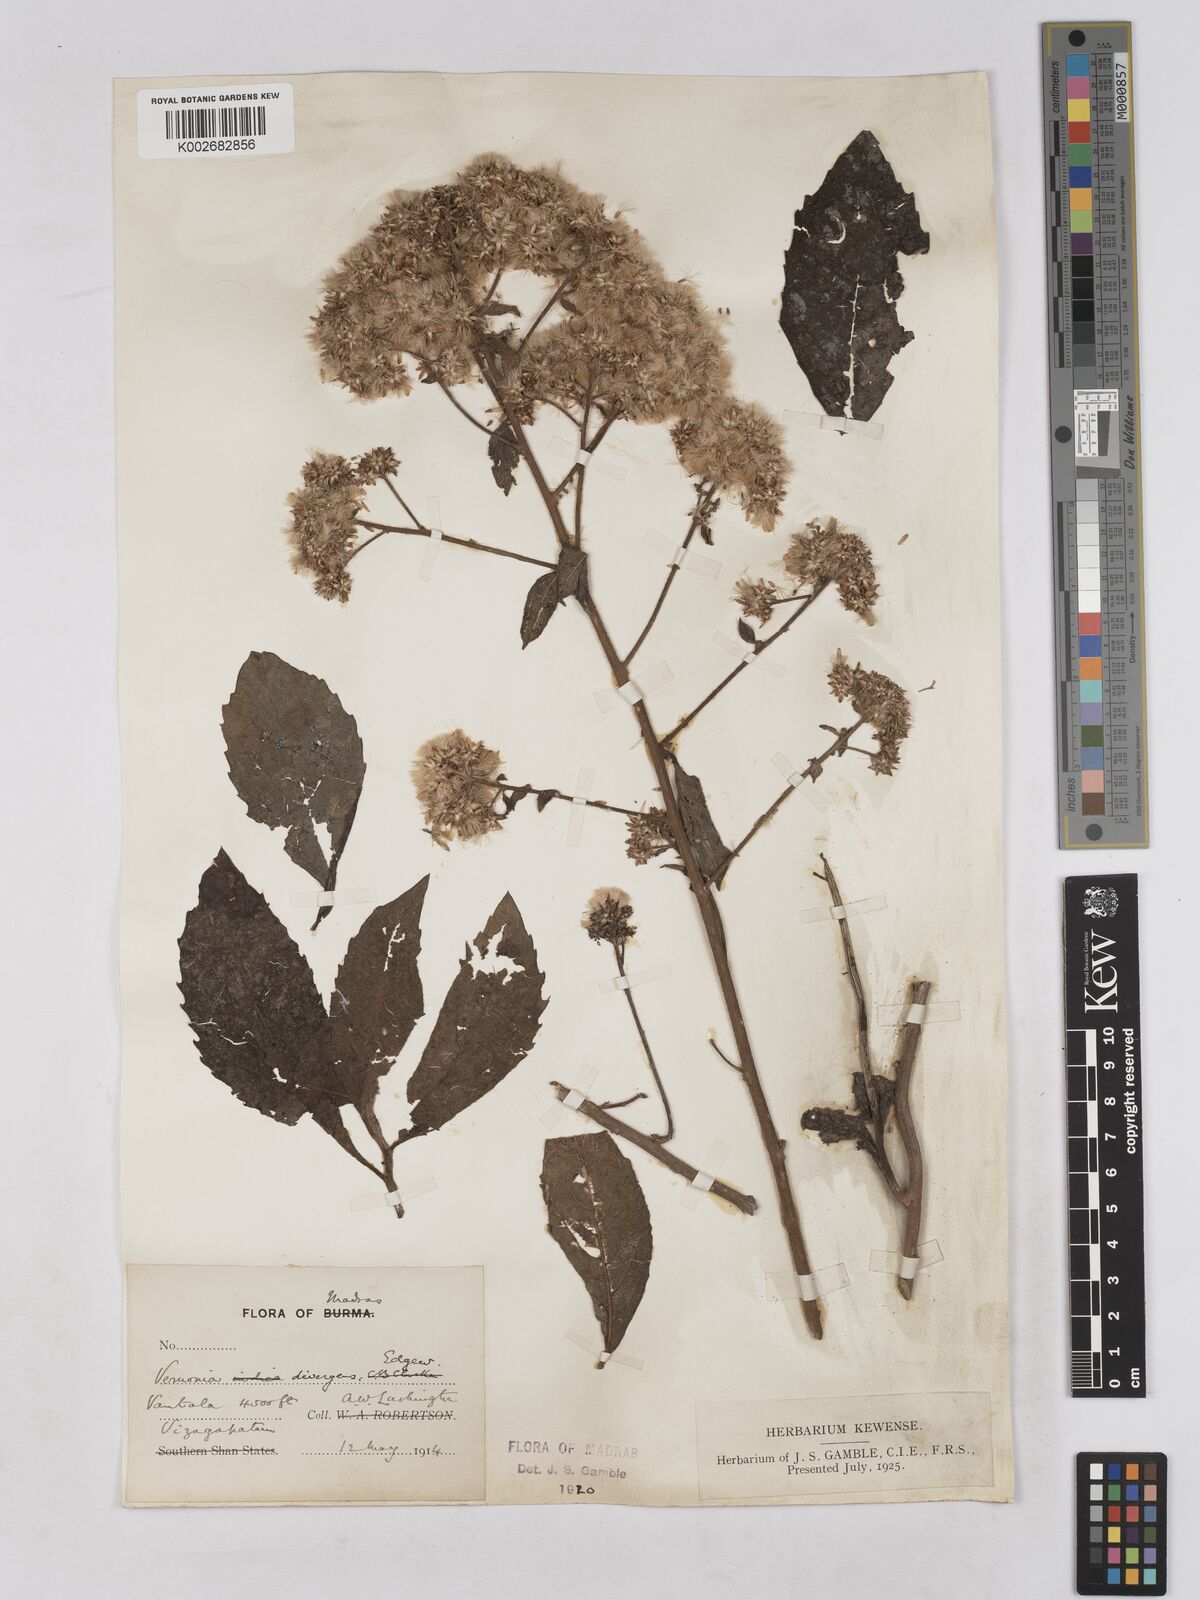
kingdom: Plantae
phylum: Tracheophyta
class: Magnoliopsida
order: Asterales
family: Asteraceae
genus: Acilepis
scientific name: Acilepis divergens
